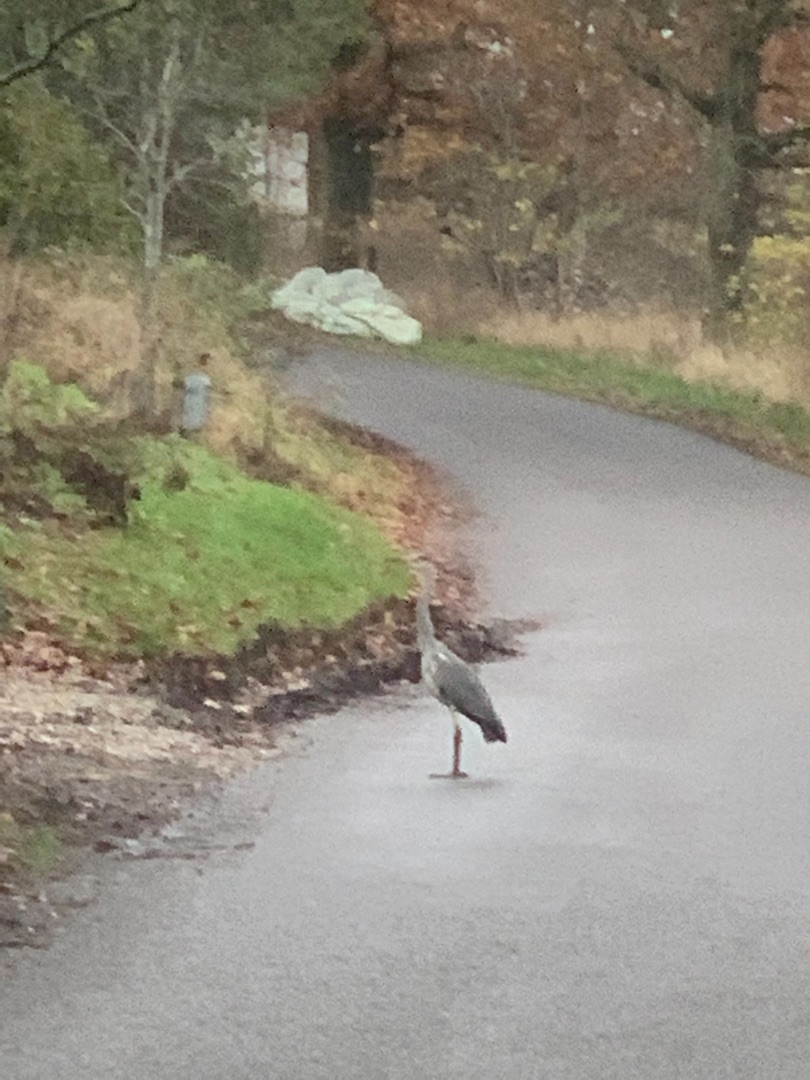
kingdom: Animalia
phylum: Chordata
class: Aves
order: Pelecaniformes
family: Ardeidae
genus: Ardea
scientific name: Ardea cinerea
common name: Fiskehejre
